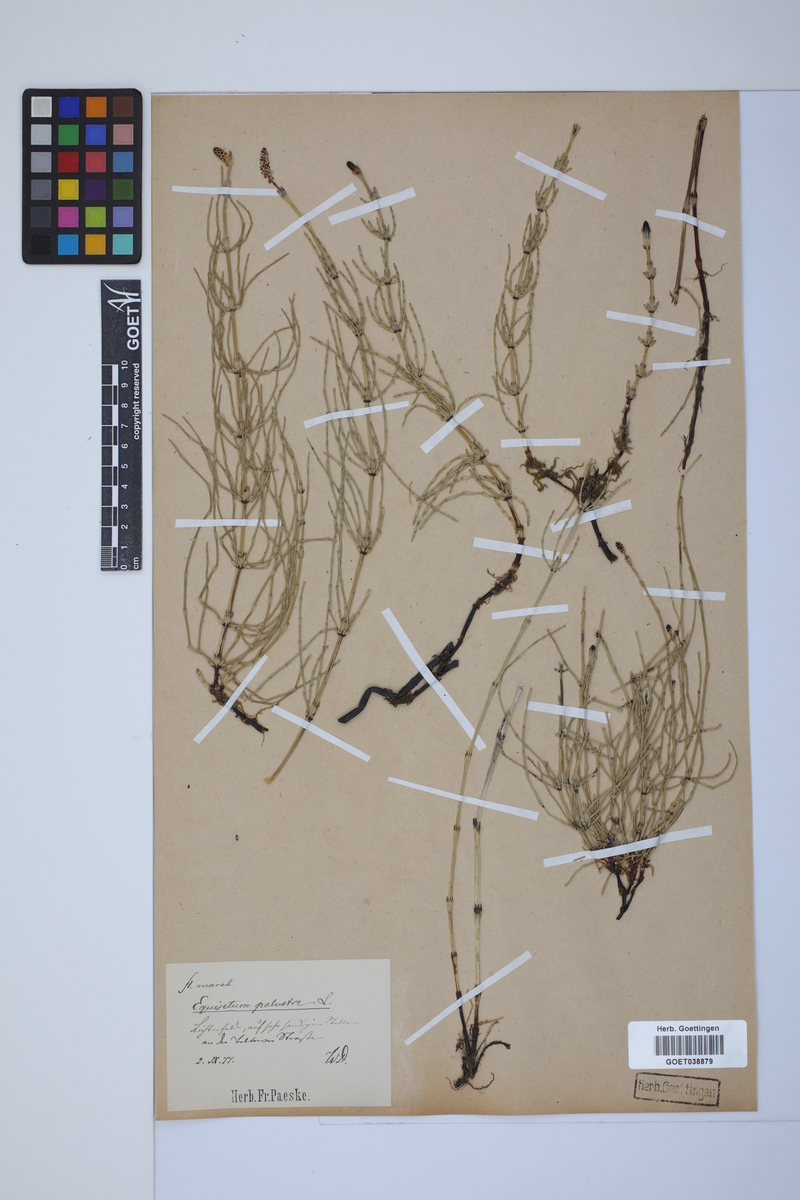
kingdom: Plantae
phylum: Tracheophyta
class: Polypodiopsida
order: Equisetales
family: Equisetaceae
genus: Equisetum
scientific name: Equisetum palustre
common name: Marsh horsetail
